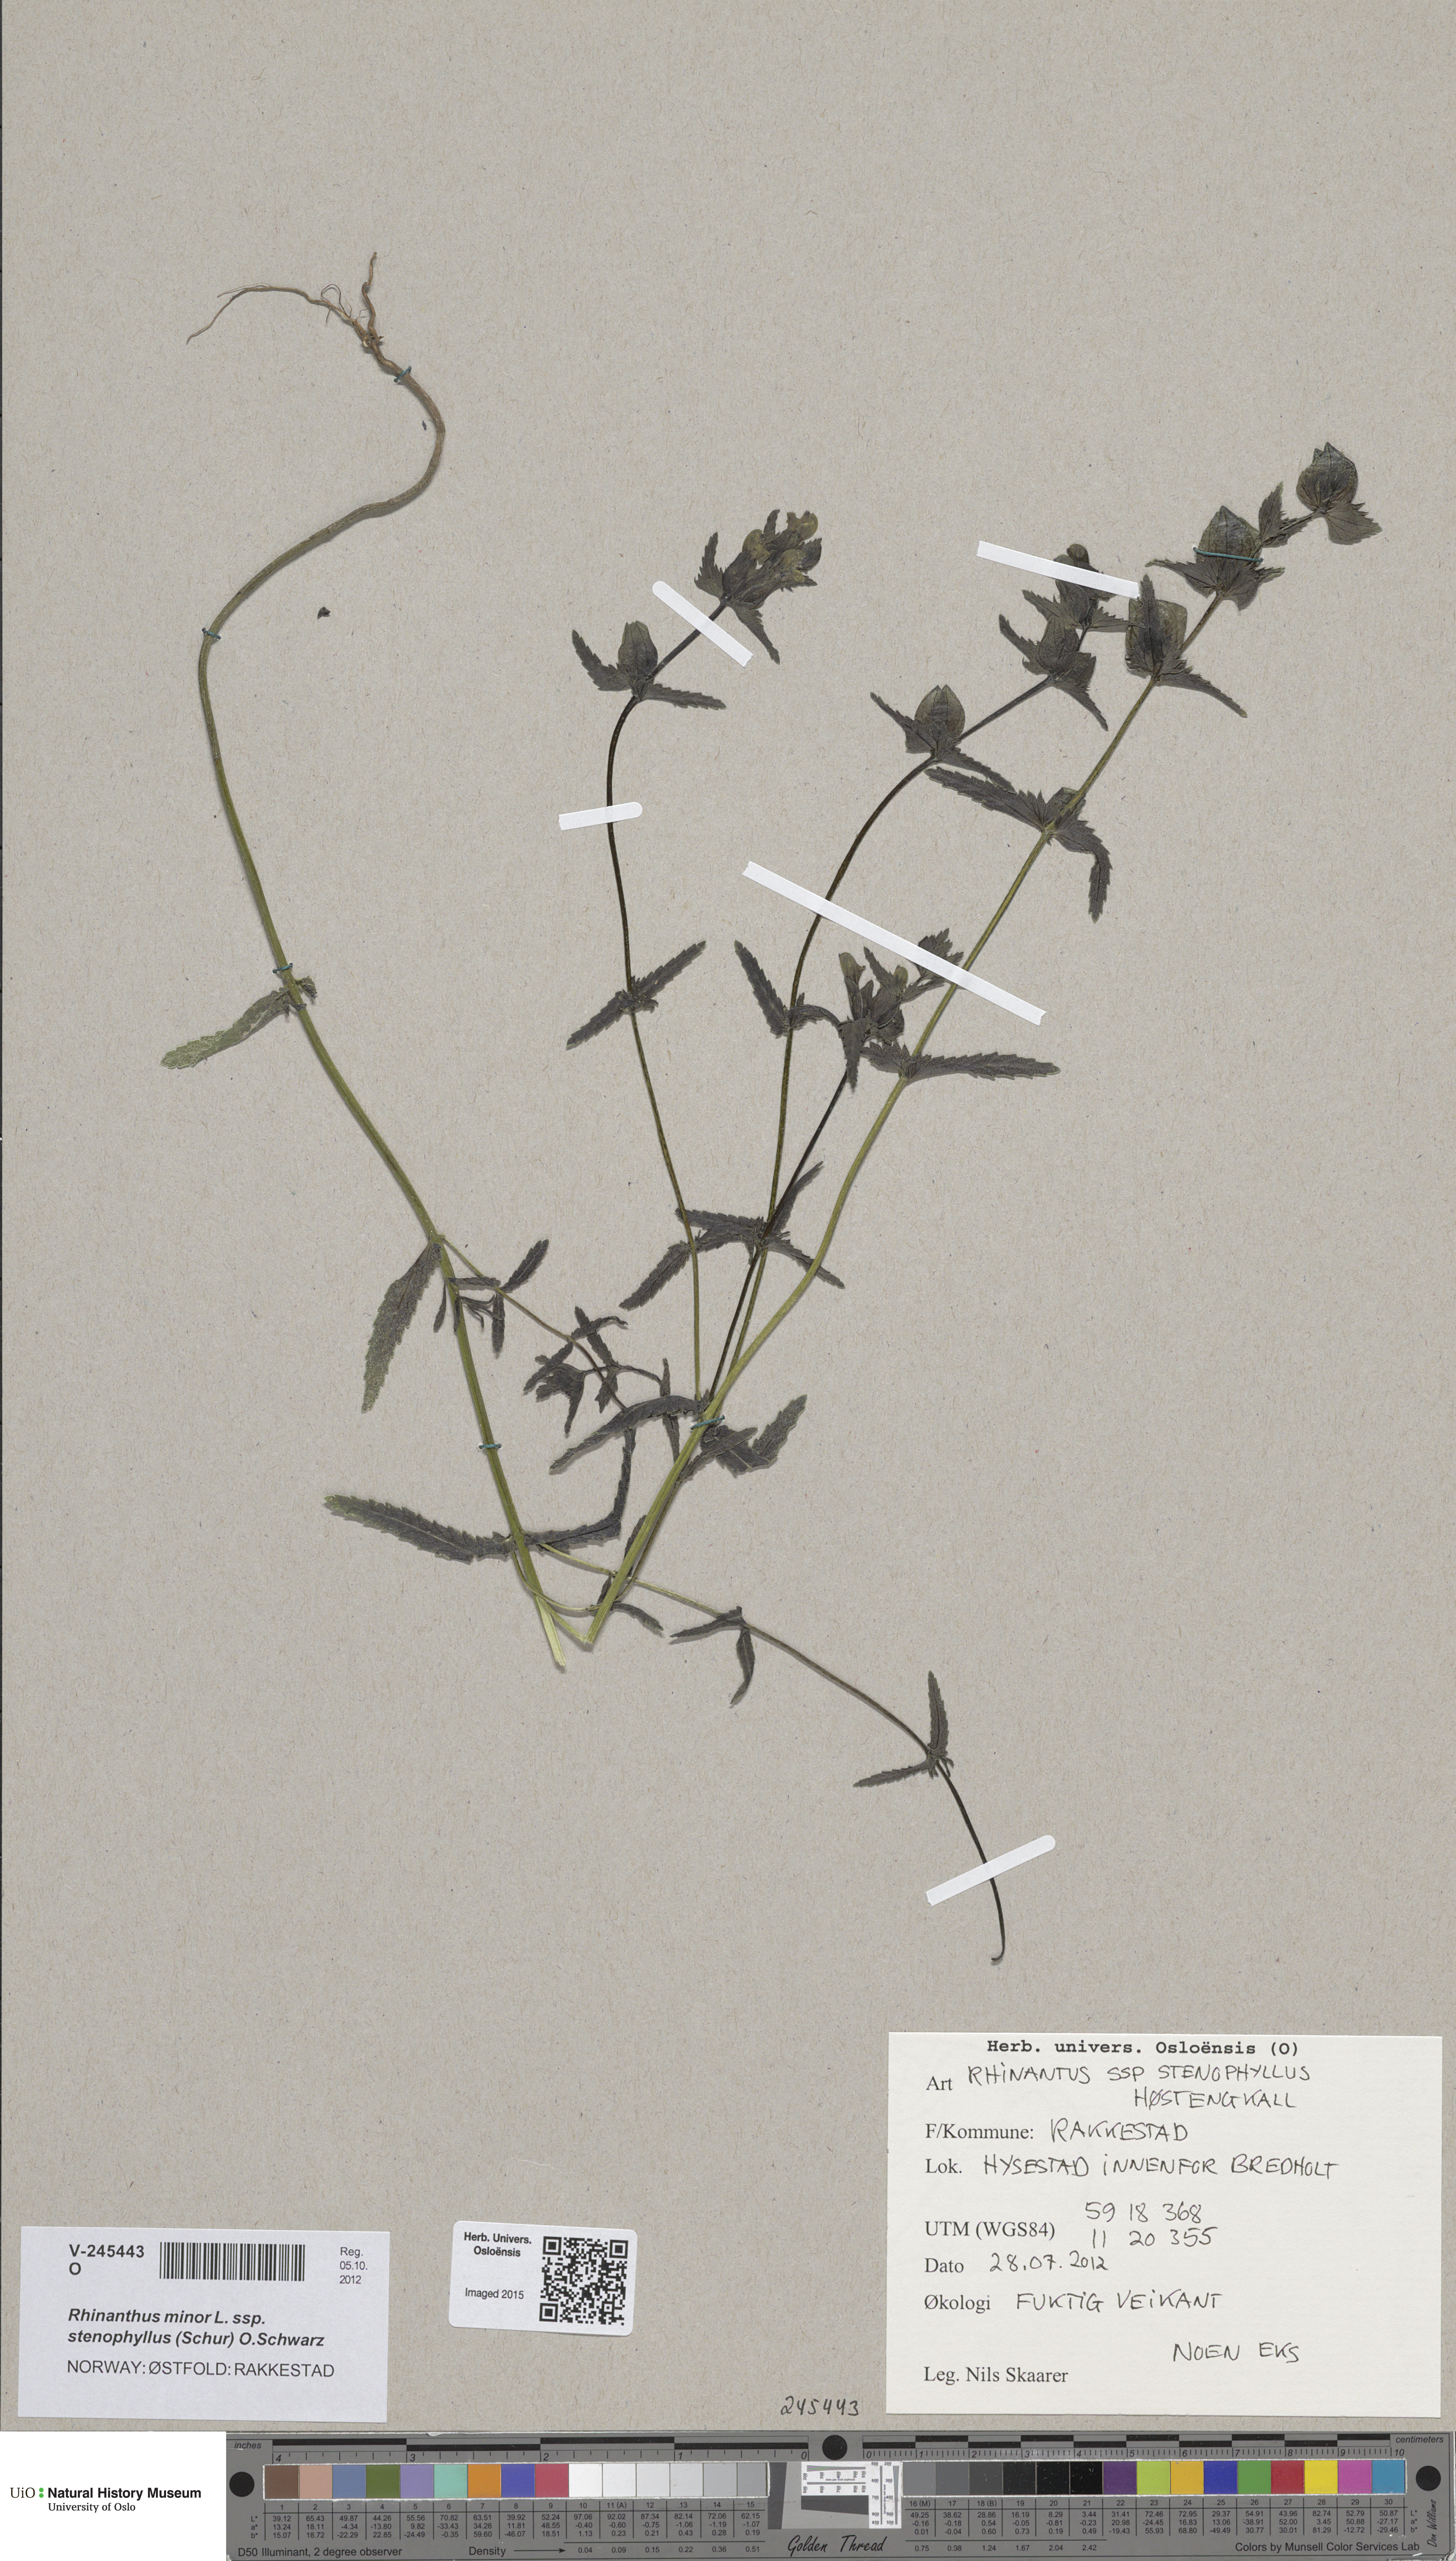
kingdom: Plantae
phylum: Tracheophyta
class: Magnoliopsida
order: Lamiales
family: Orobanchaceae
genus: Rhinanthus
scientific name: Rhinanthus minor
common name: Yellow-rattle
